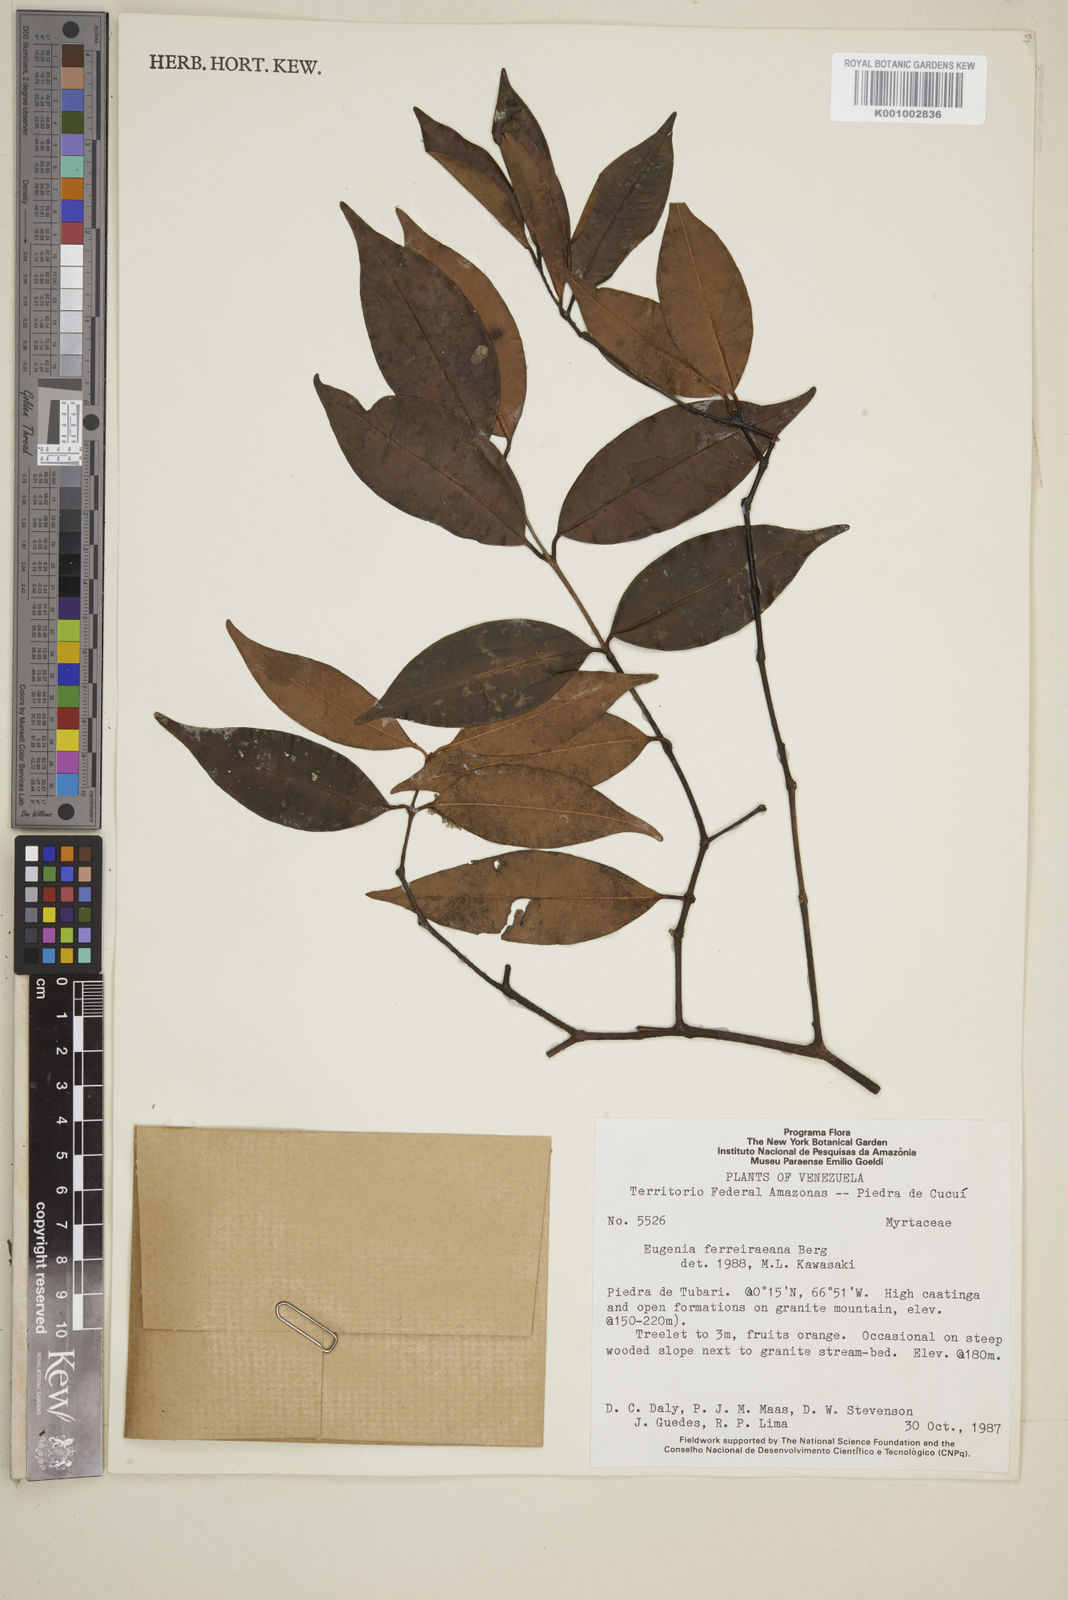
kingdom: Plantae
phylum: Tracheophyta
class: Magnoliopsida
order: Myrtales
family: Myrtaceae
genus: Eugenia
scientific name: Eugenia ferreiraeana
